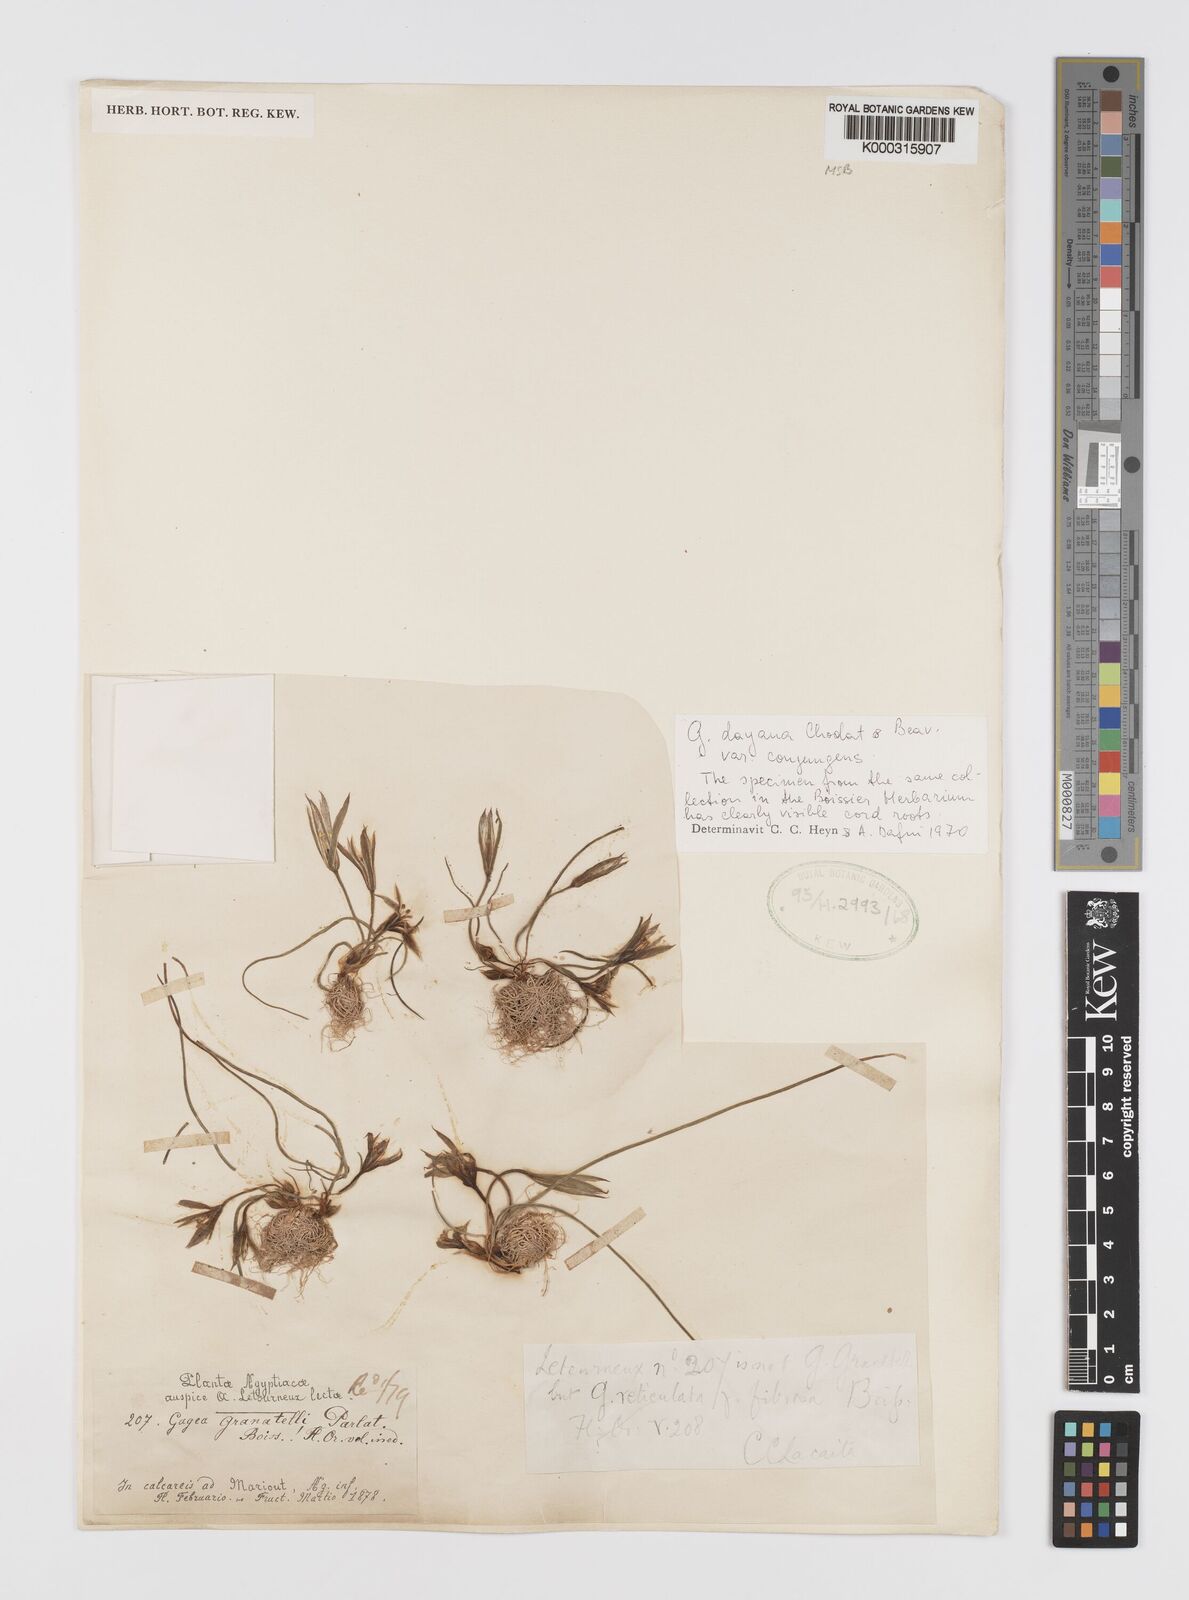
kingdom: Plantae
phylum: Tracheophyta
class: Liliopsida
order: Liliales
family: Liliaceae
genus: Gagea
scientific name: Gagea dayana
